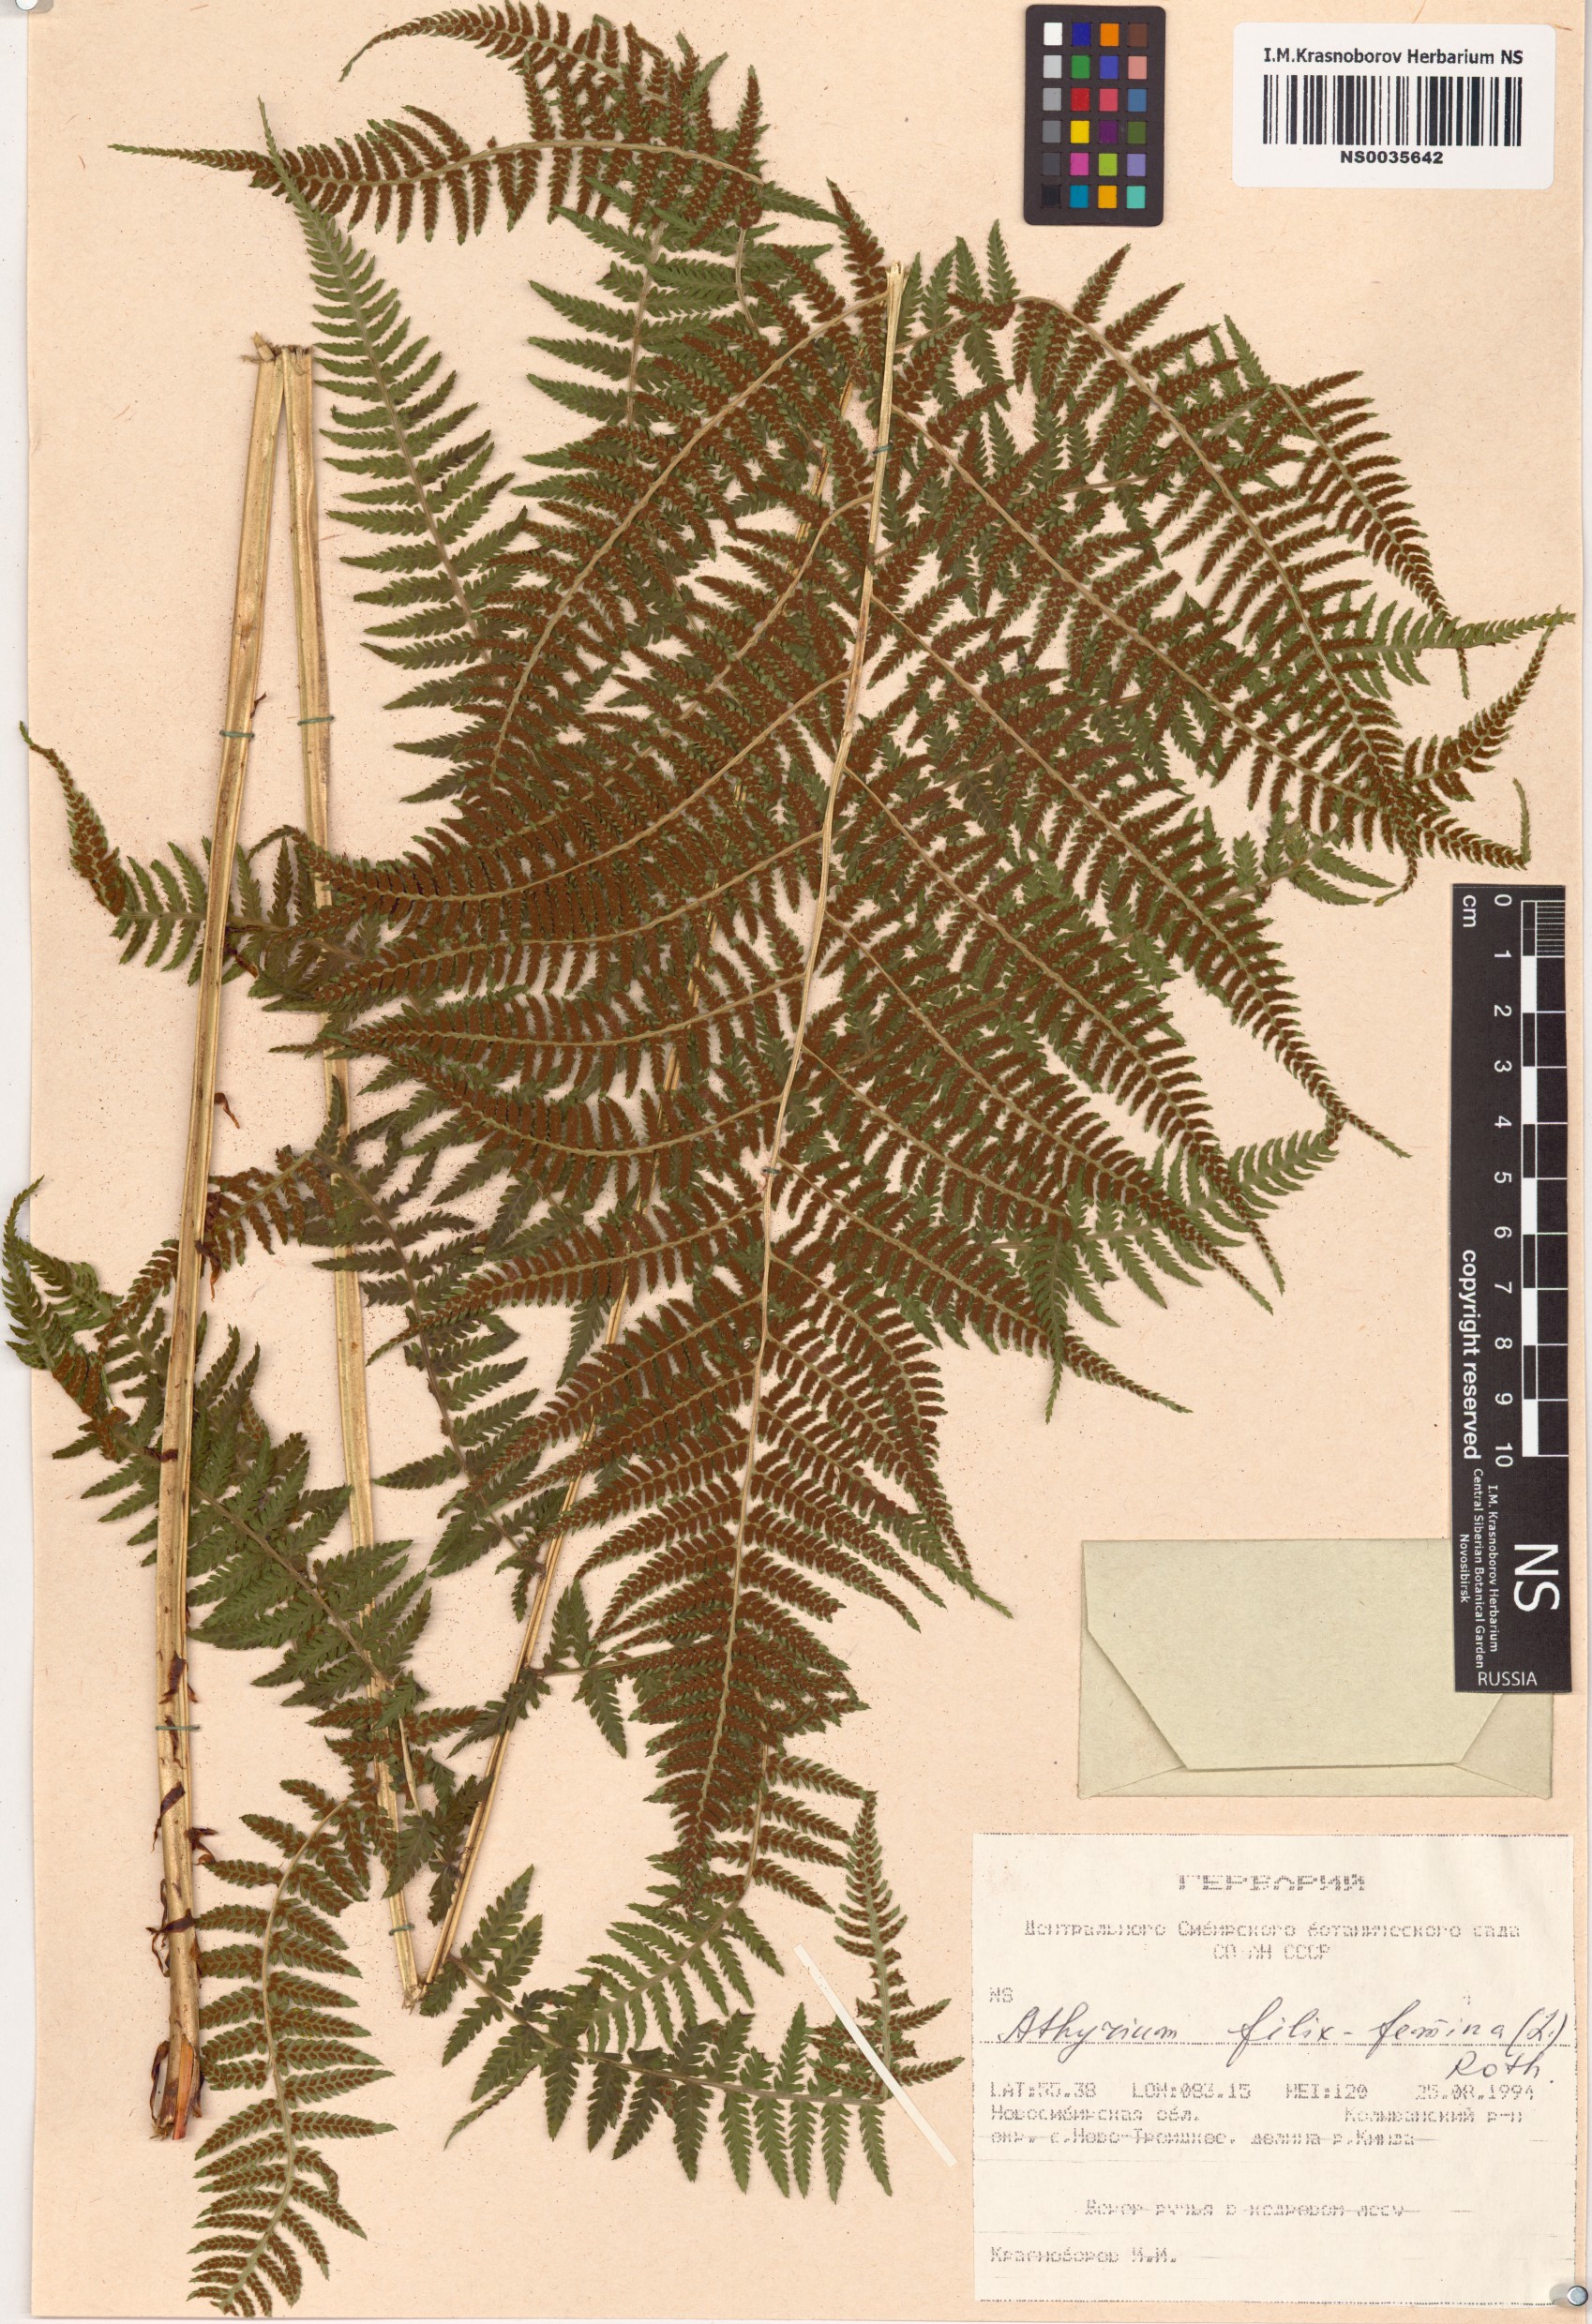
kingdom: Plantae
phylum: Tracheophyta
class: Polypodiopsida
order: Polypodiales
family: Athyriaceae
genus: Athyrium
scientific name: Athyrium filix-femina
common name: Lady fern
